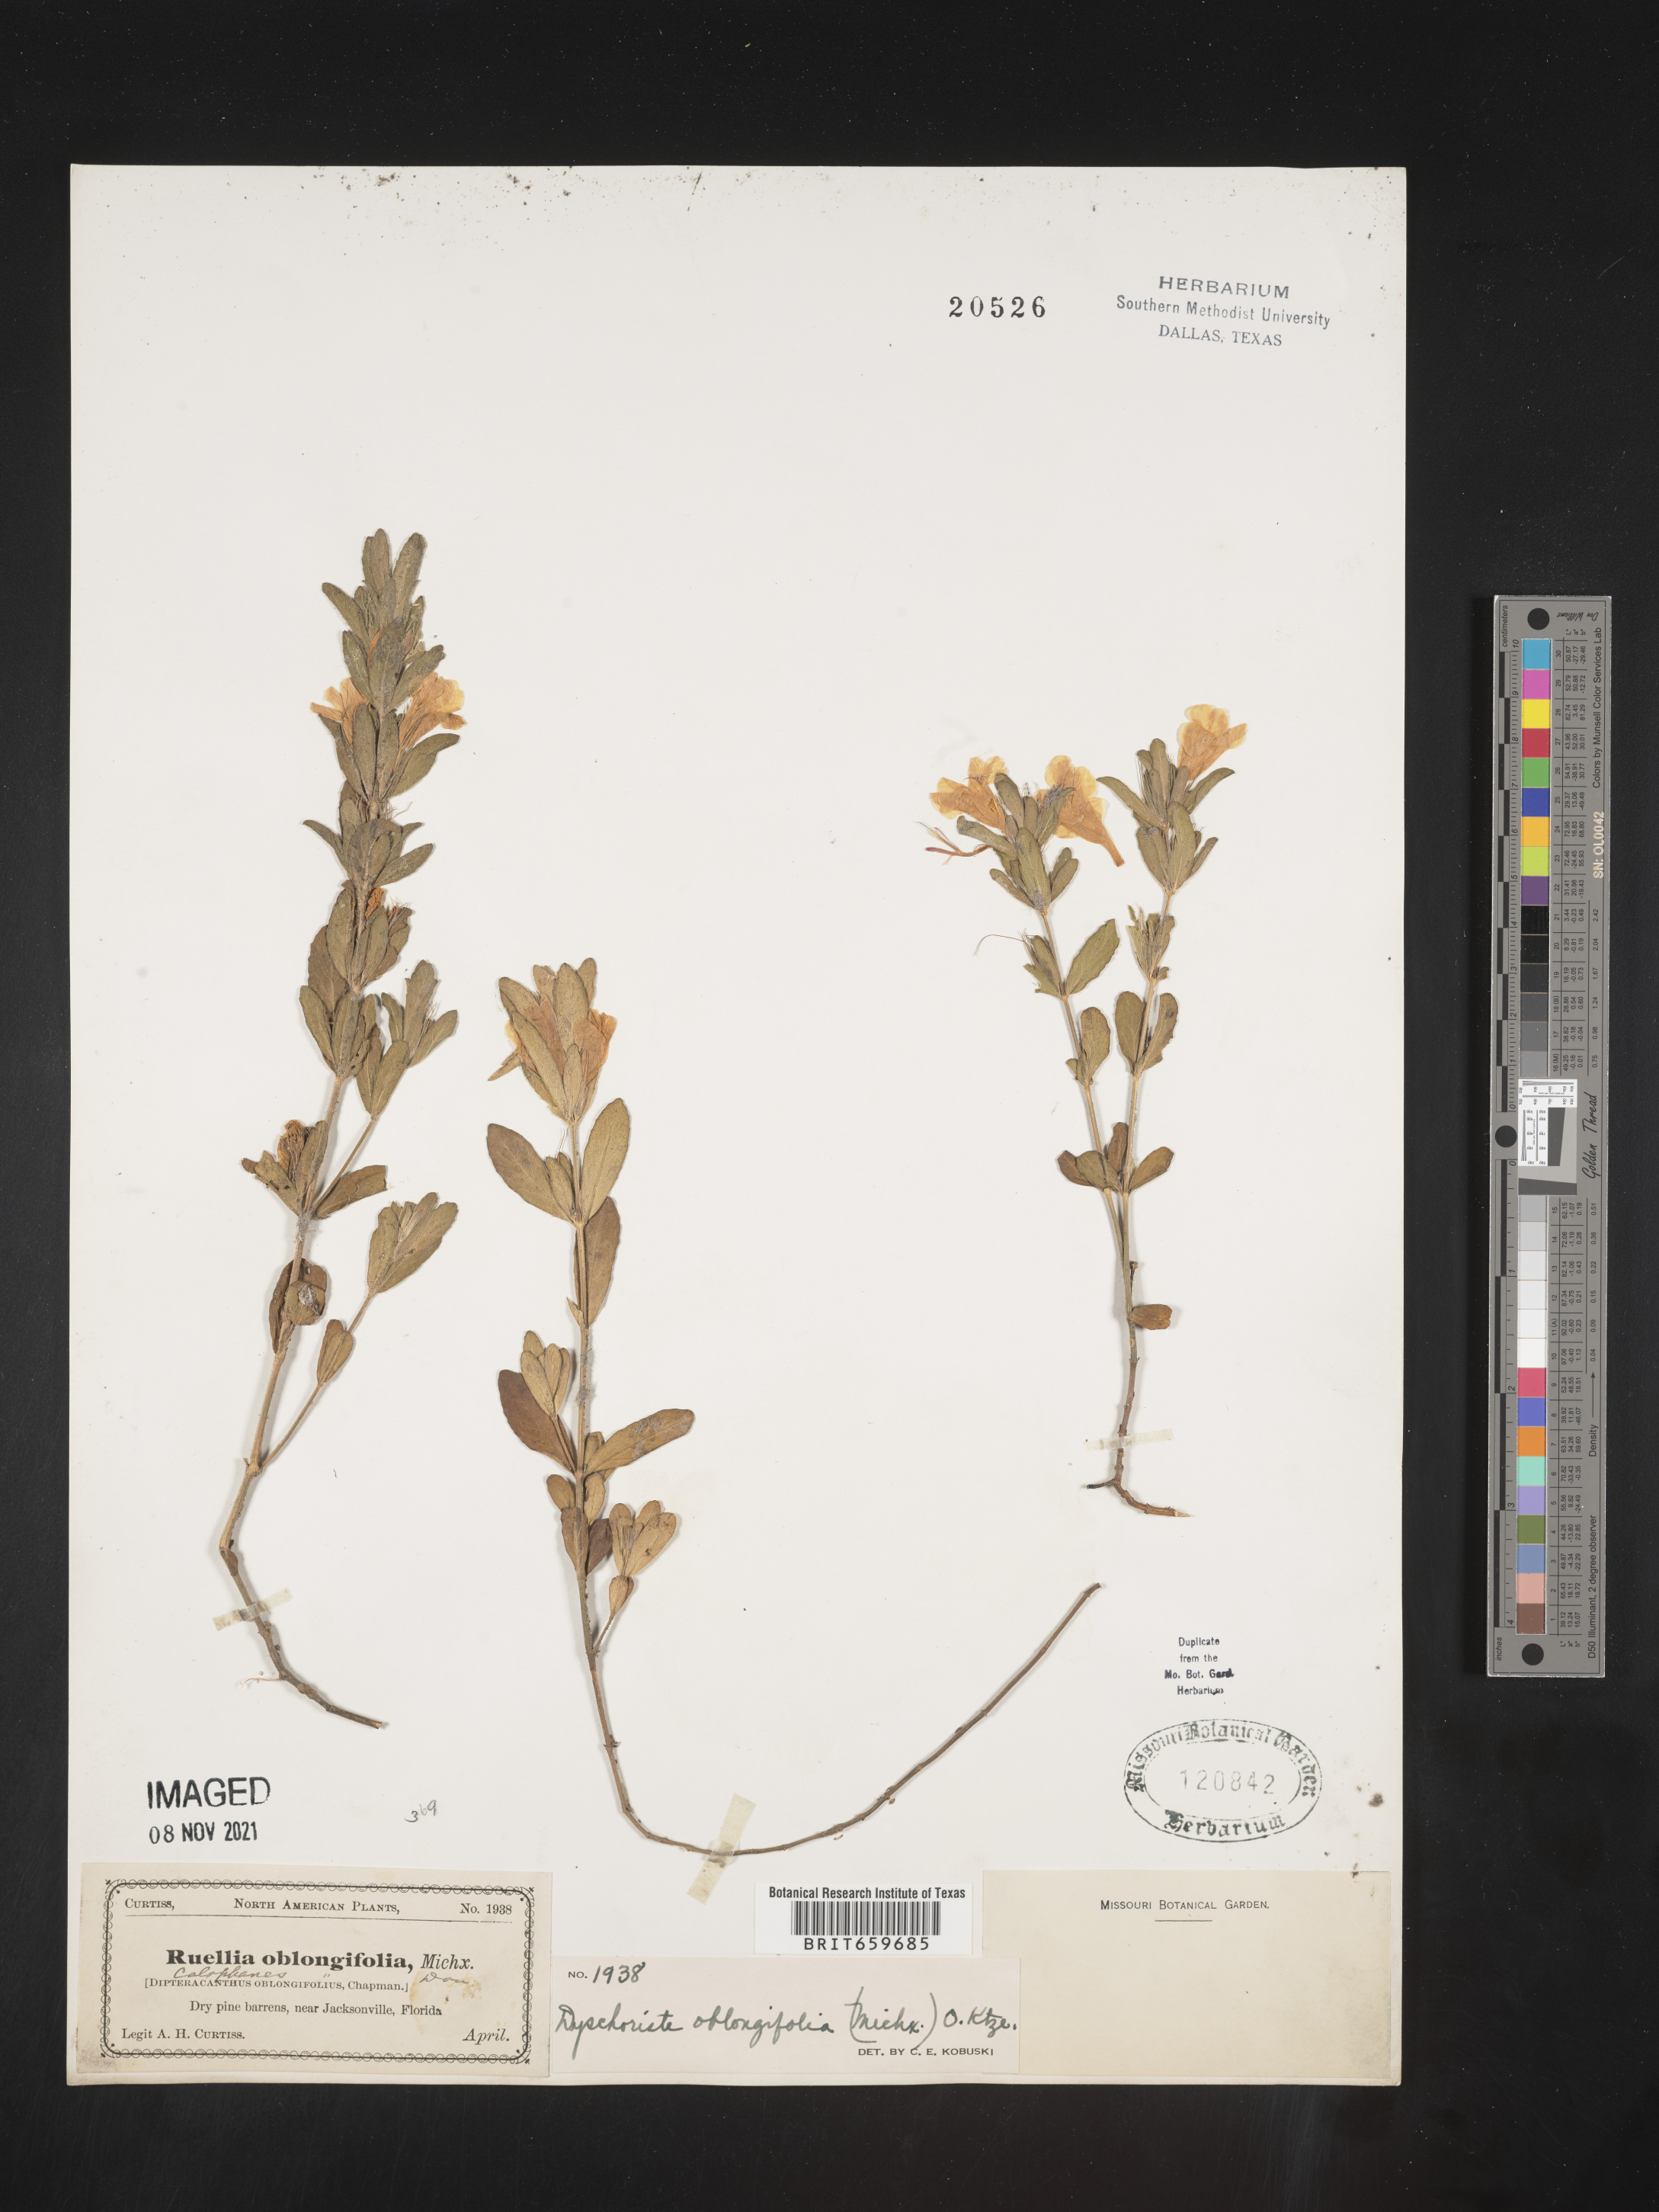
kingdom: Plantae
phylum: Tracheophyta
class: Magnoliopsida
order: Lamiales
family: Acanthaceae
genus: Dyschoriste
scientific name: Dyschoriste oblongifolia
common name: Blue twinflower
